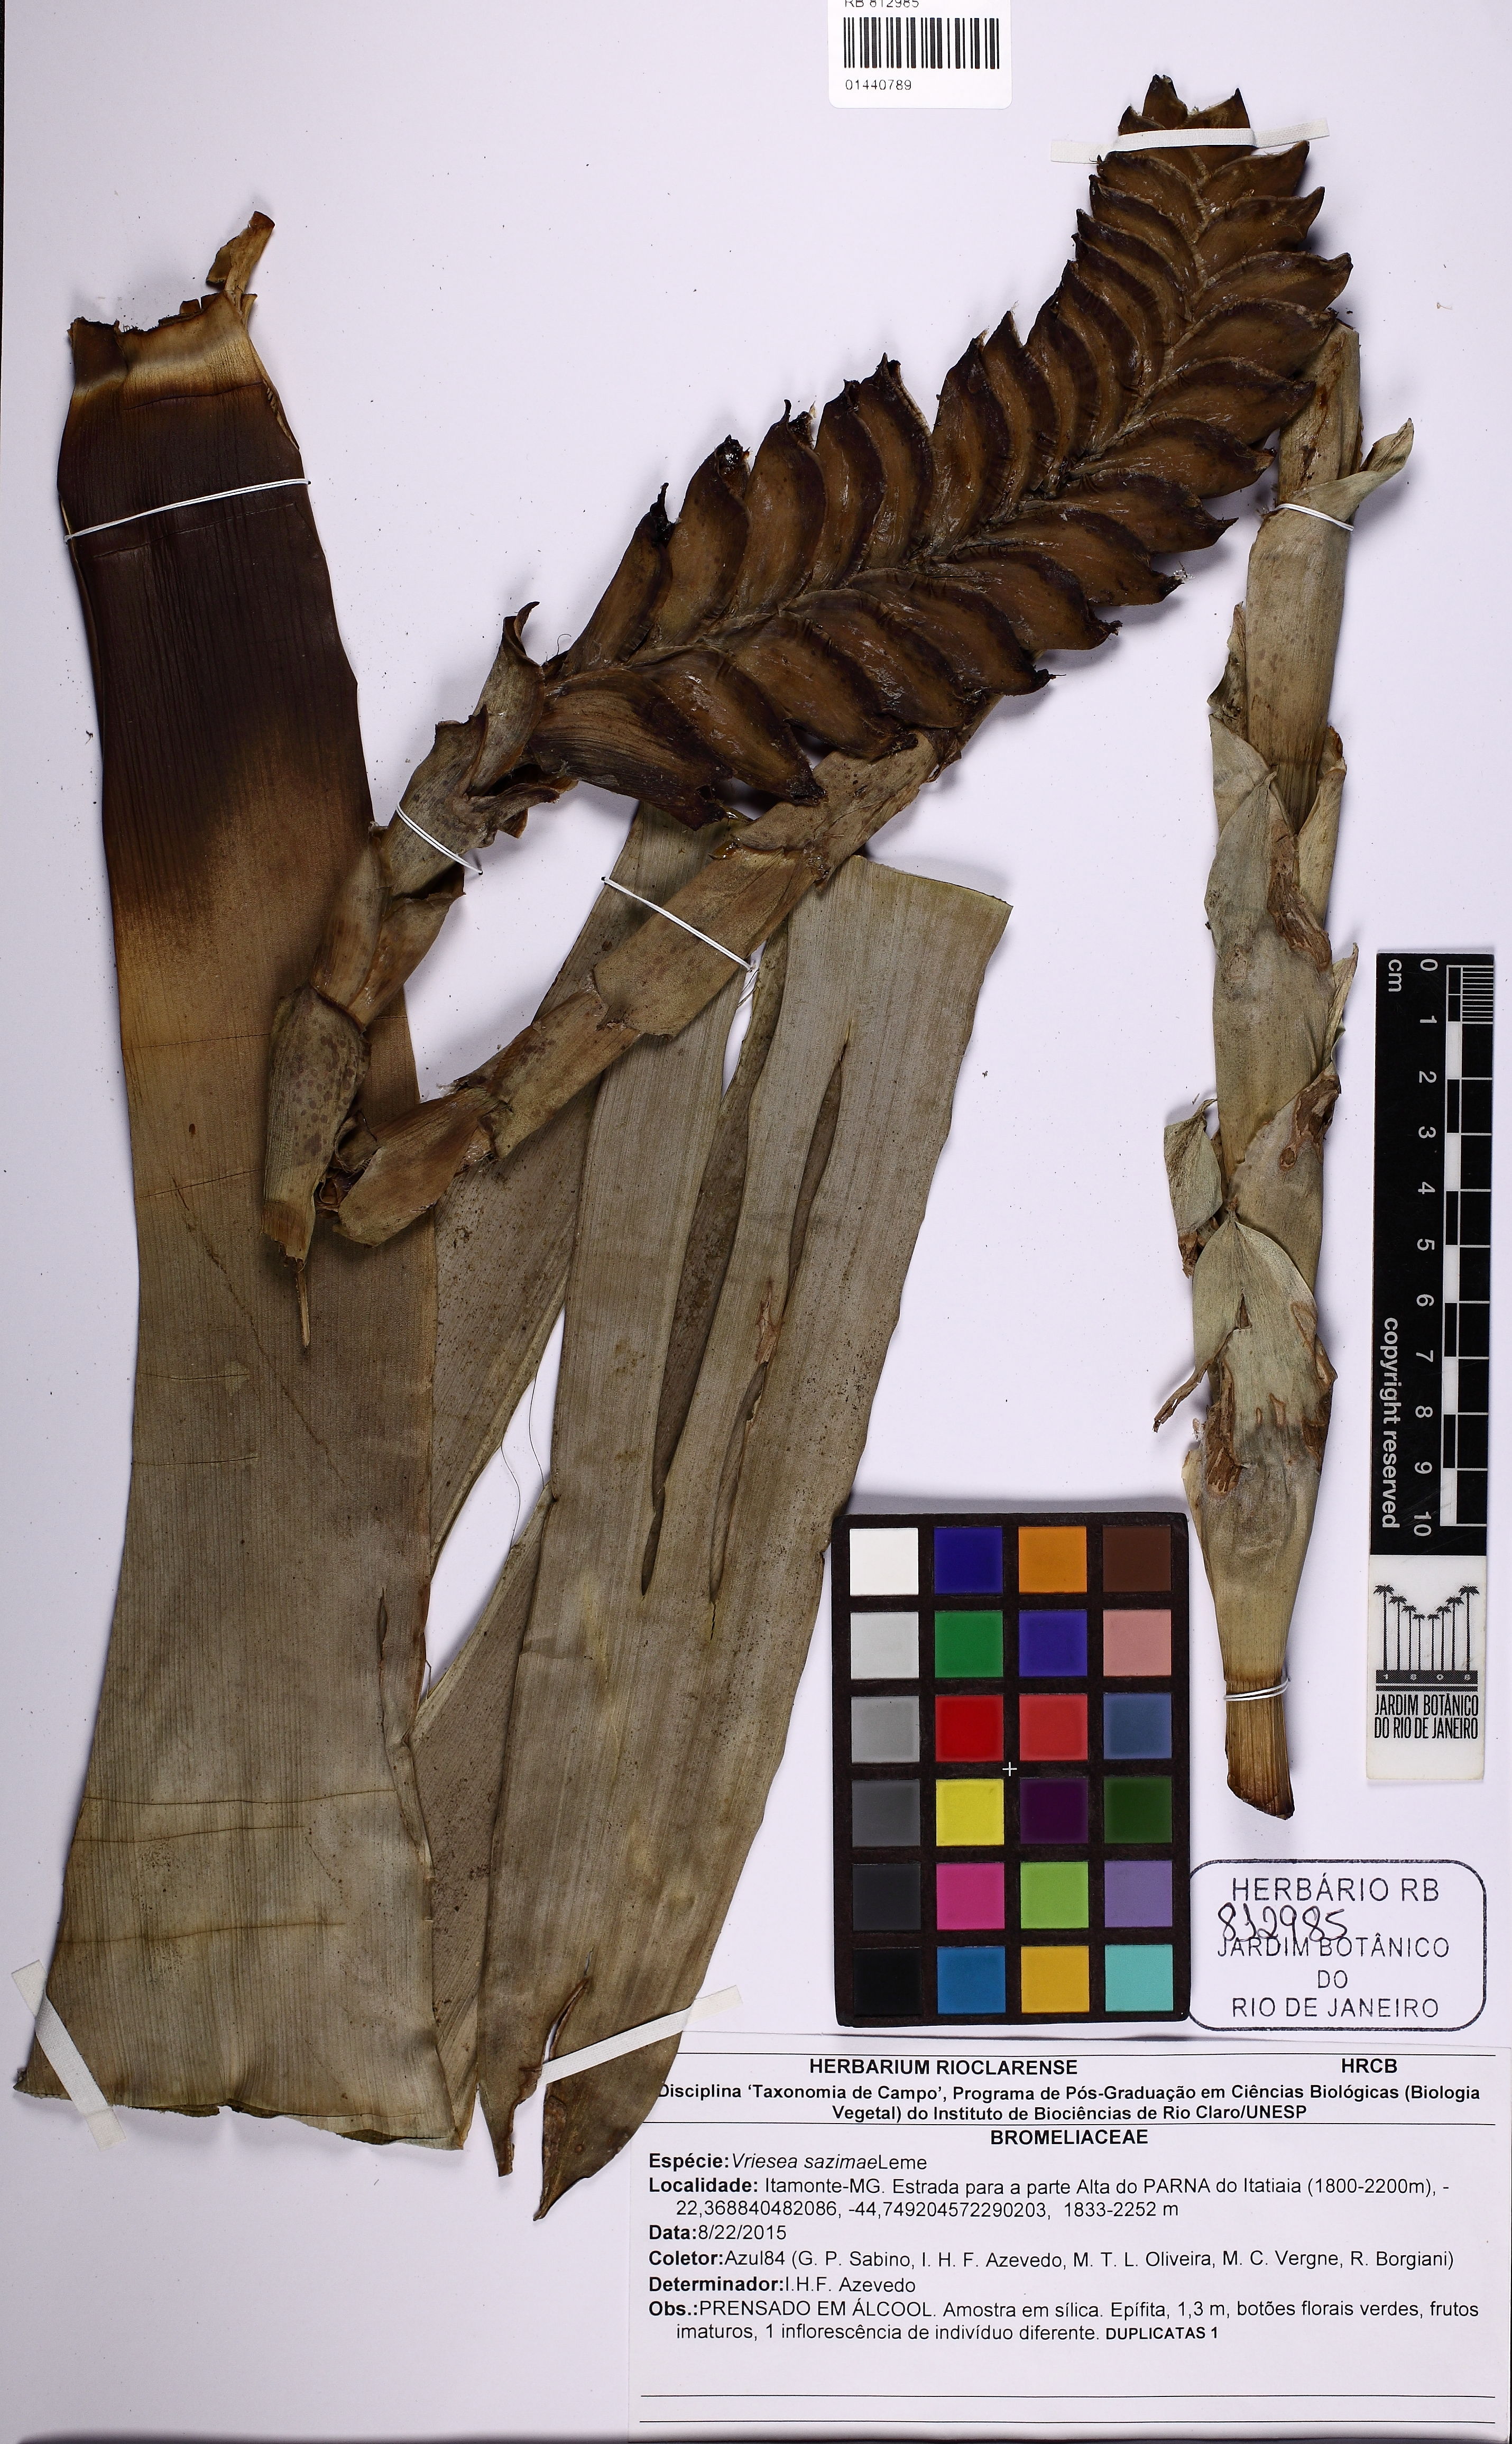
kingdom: Plantae
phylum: Tracheophyta
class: Liliopsida
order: Poales
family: Bromeliaceae
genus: Vriesea
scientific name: Vriesea sazimae
